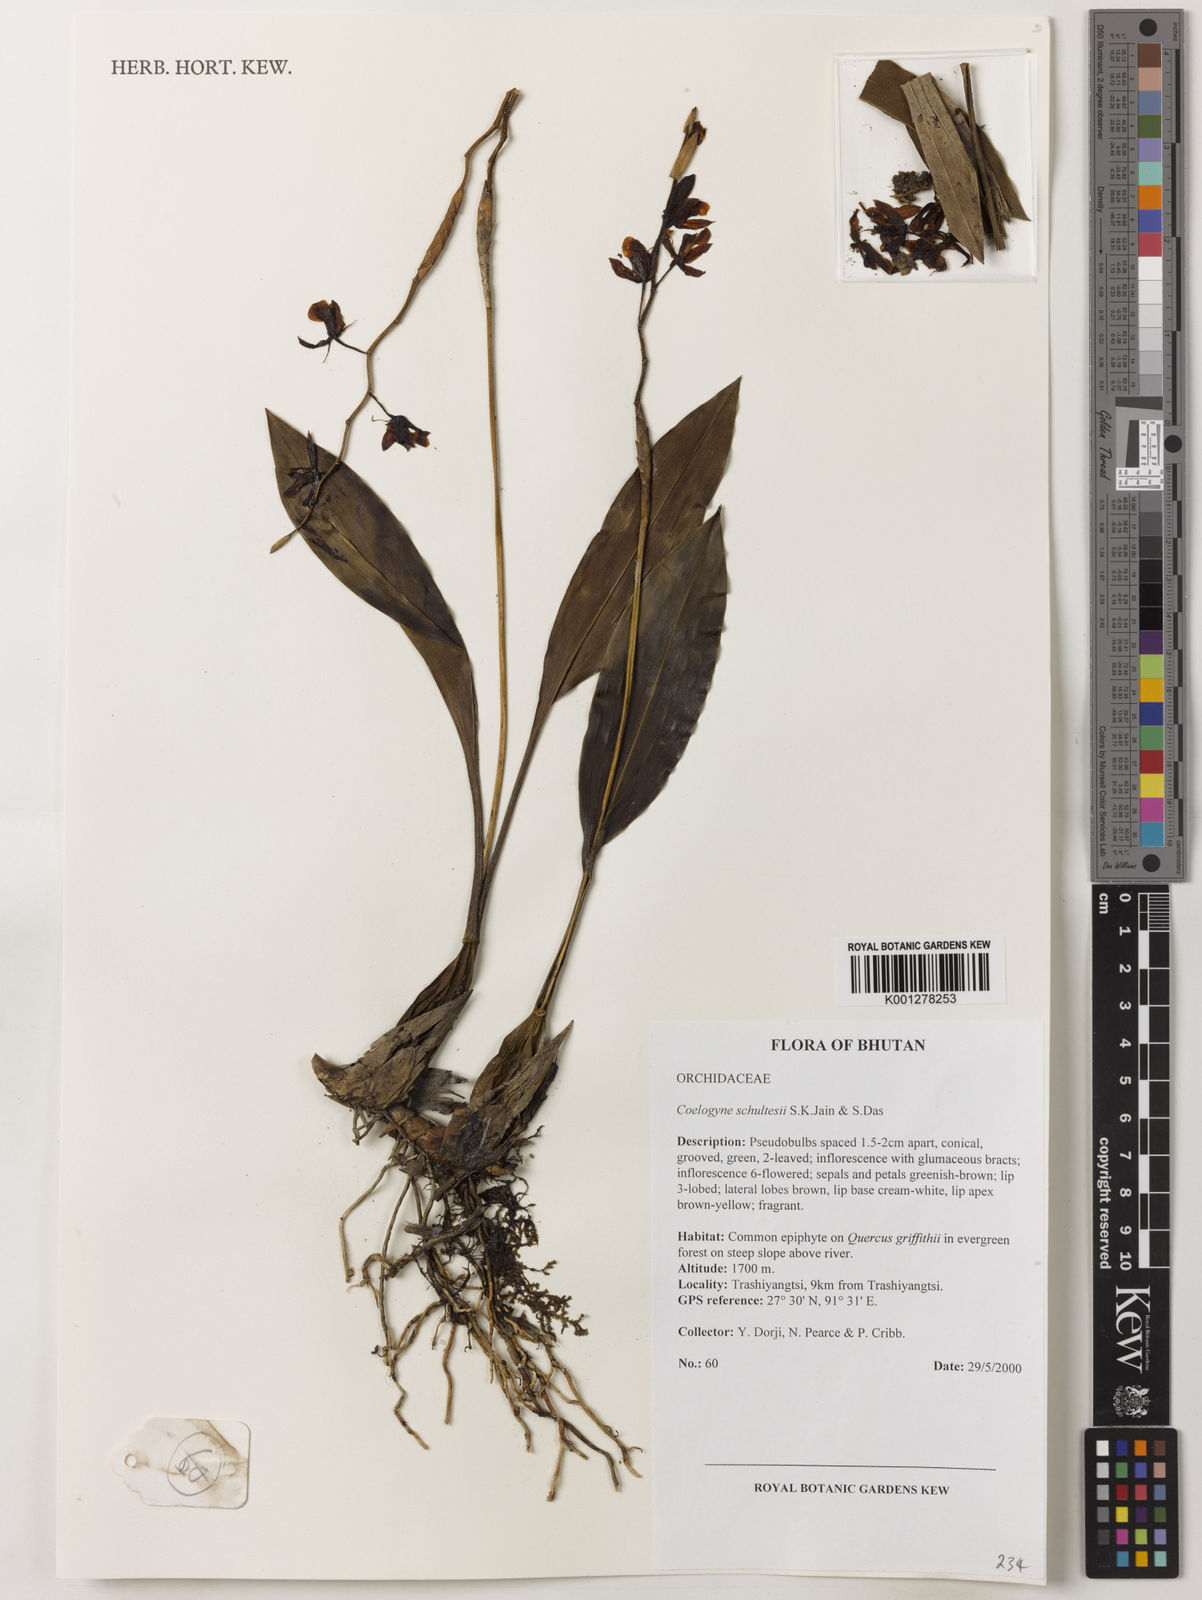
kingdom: Plantae
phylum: Tracheophyta
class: Liliopsida
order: Asparagales
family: Orchidaceae
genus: Coelogyne
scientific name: Coelogyne schultesii
